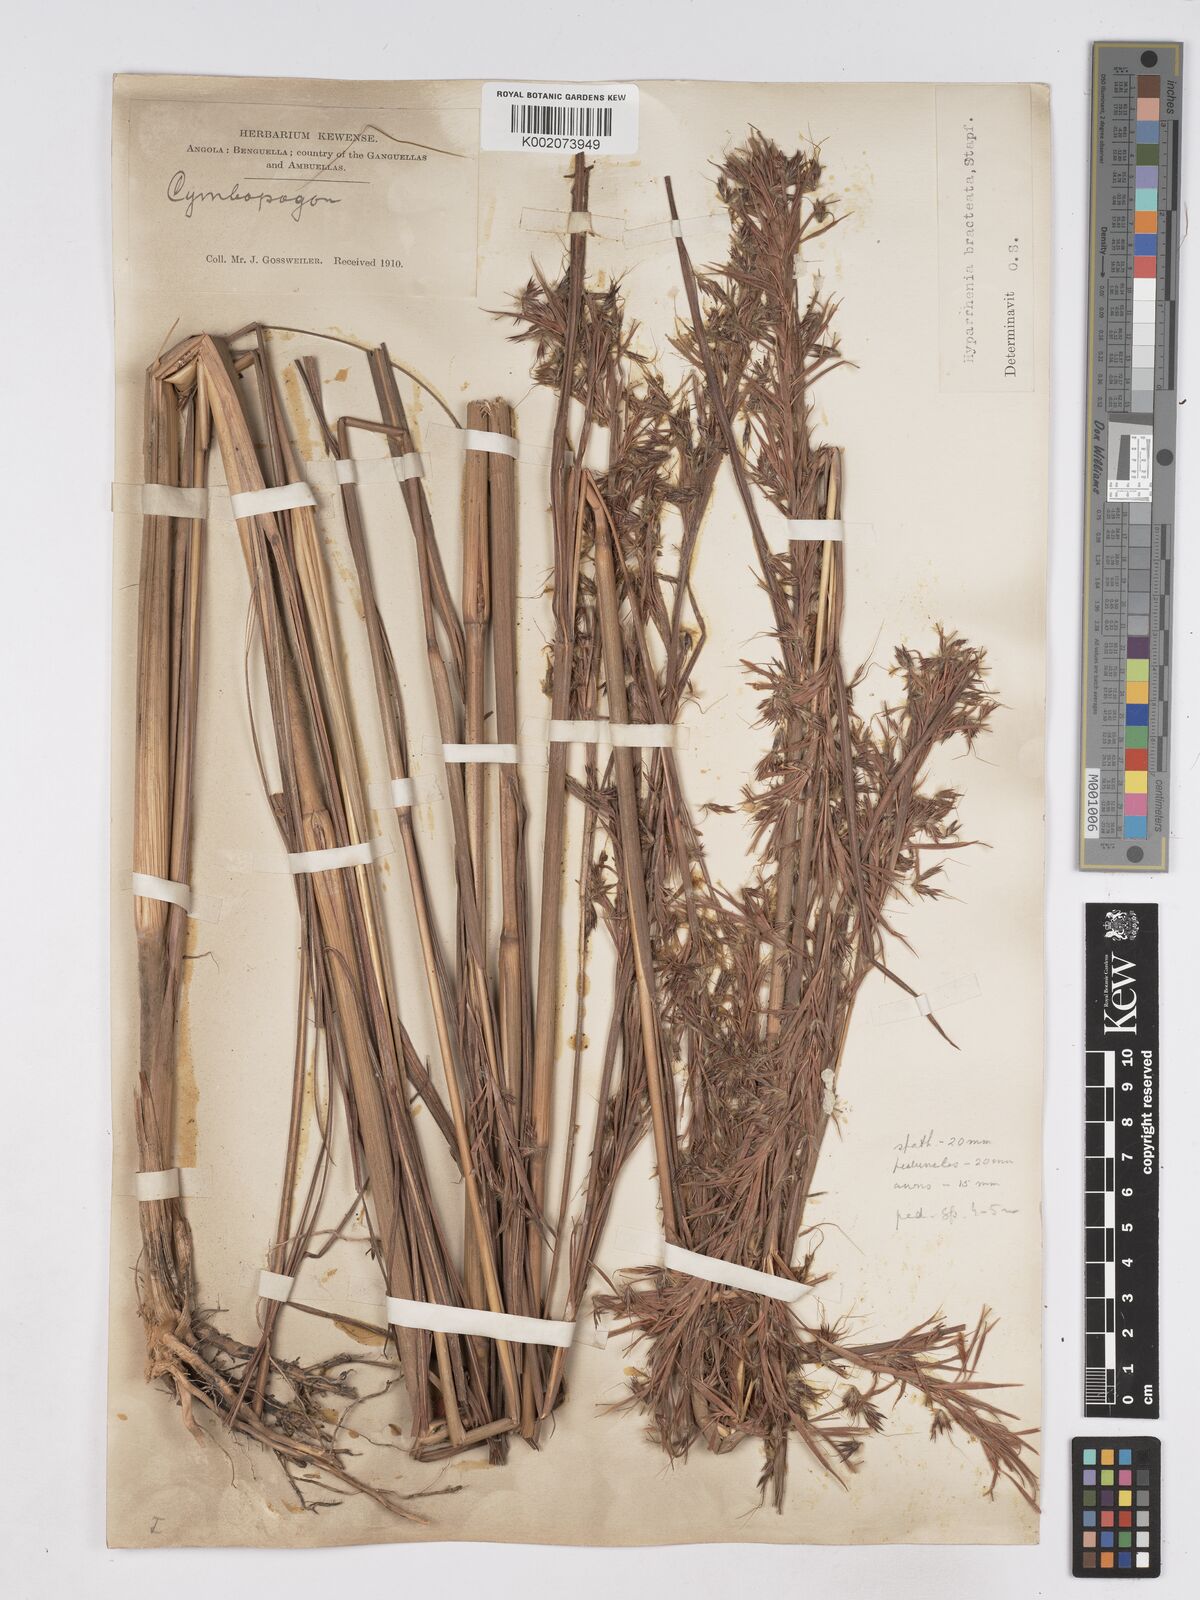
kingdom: Plantae
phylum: Tracheophyta
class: Liliopsida
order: Poales
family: Poaceae
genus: Hyparrhenia
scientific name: Hyparrhenia bracteata
